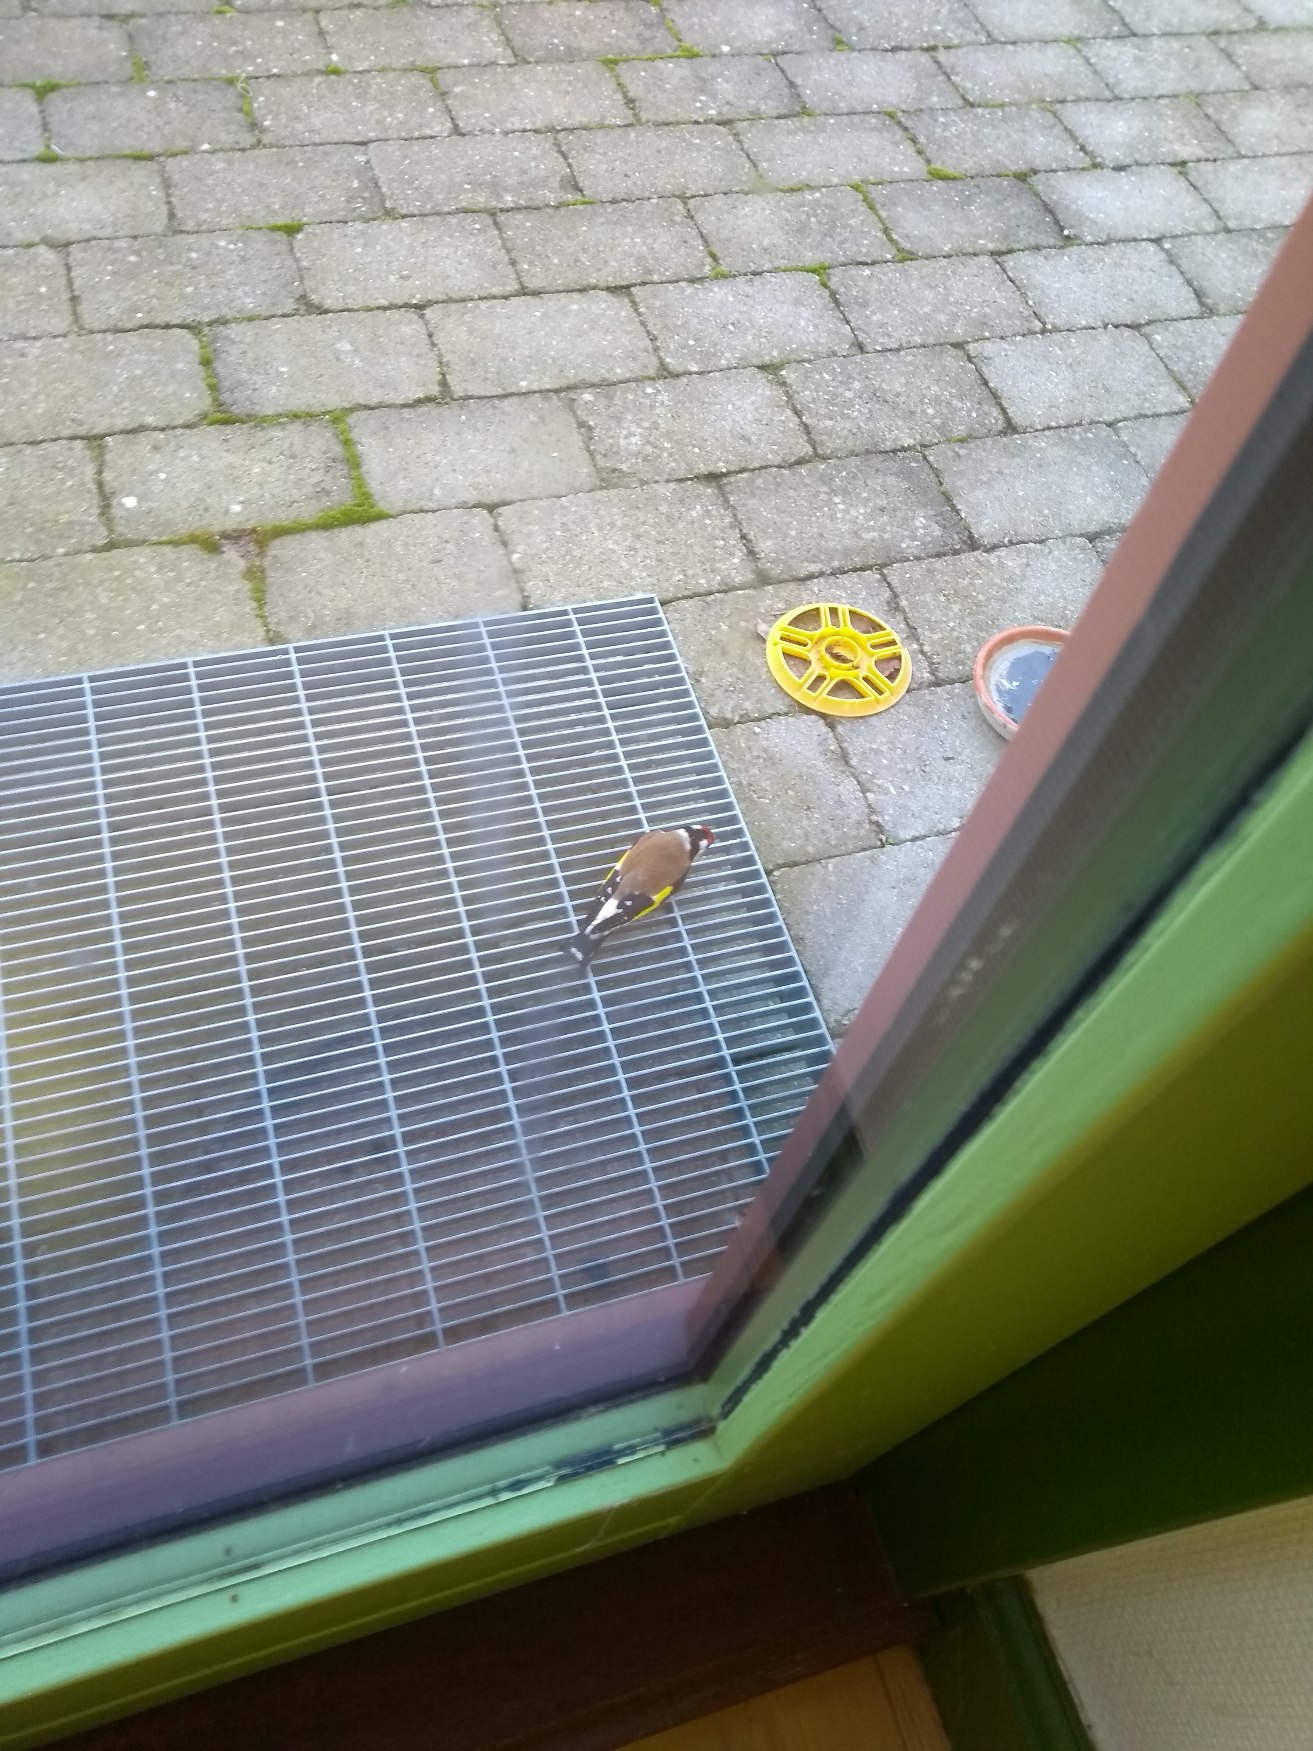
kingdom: Animalia
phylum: Chordata
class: Aves
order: Passeriformes
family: Fringillidae
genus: Carduelis
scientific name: Carduelis carduelis
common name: Stillits
